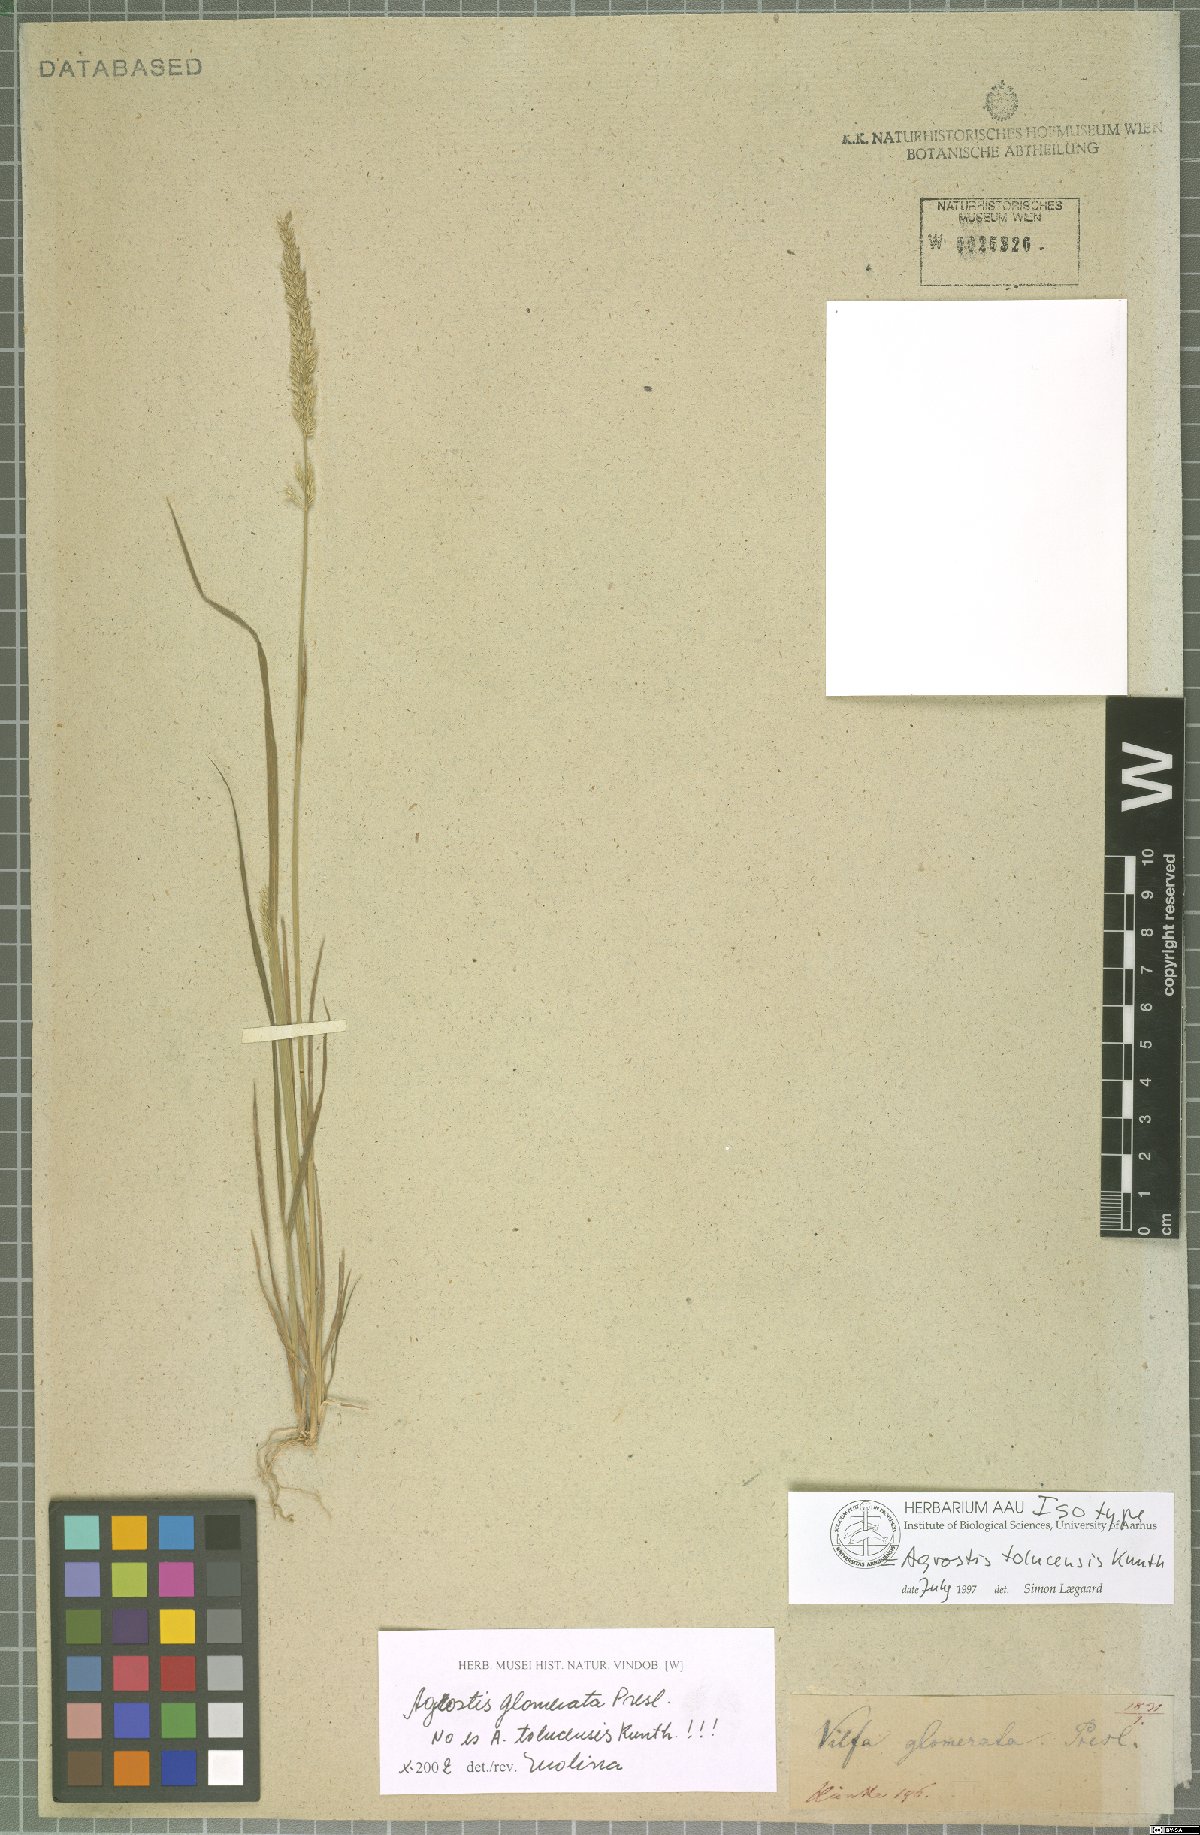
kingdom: Plantae
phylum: Tracheophyta
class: Liliopsida
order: Poales
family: Poaceae
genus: Agrostis
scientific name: Agrostis tolucensis
